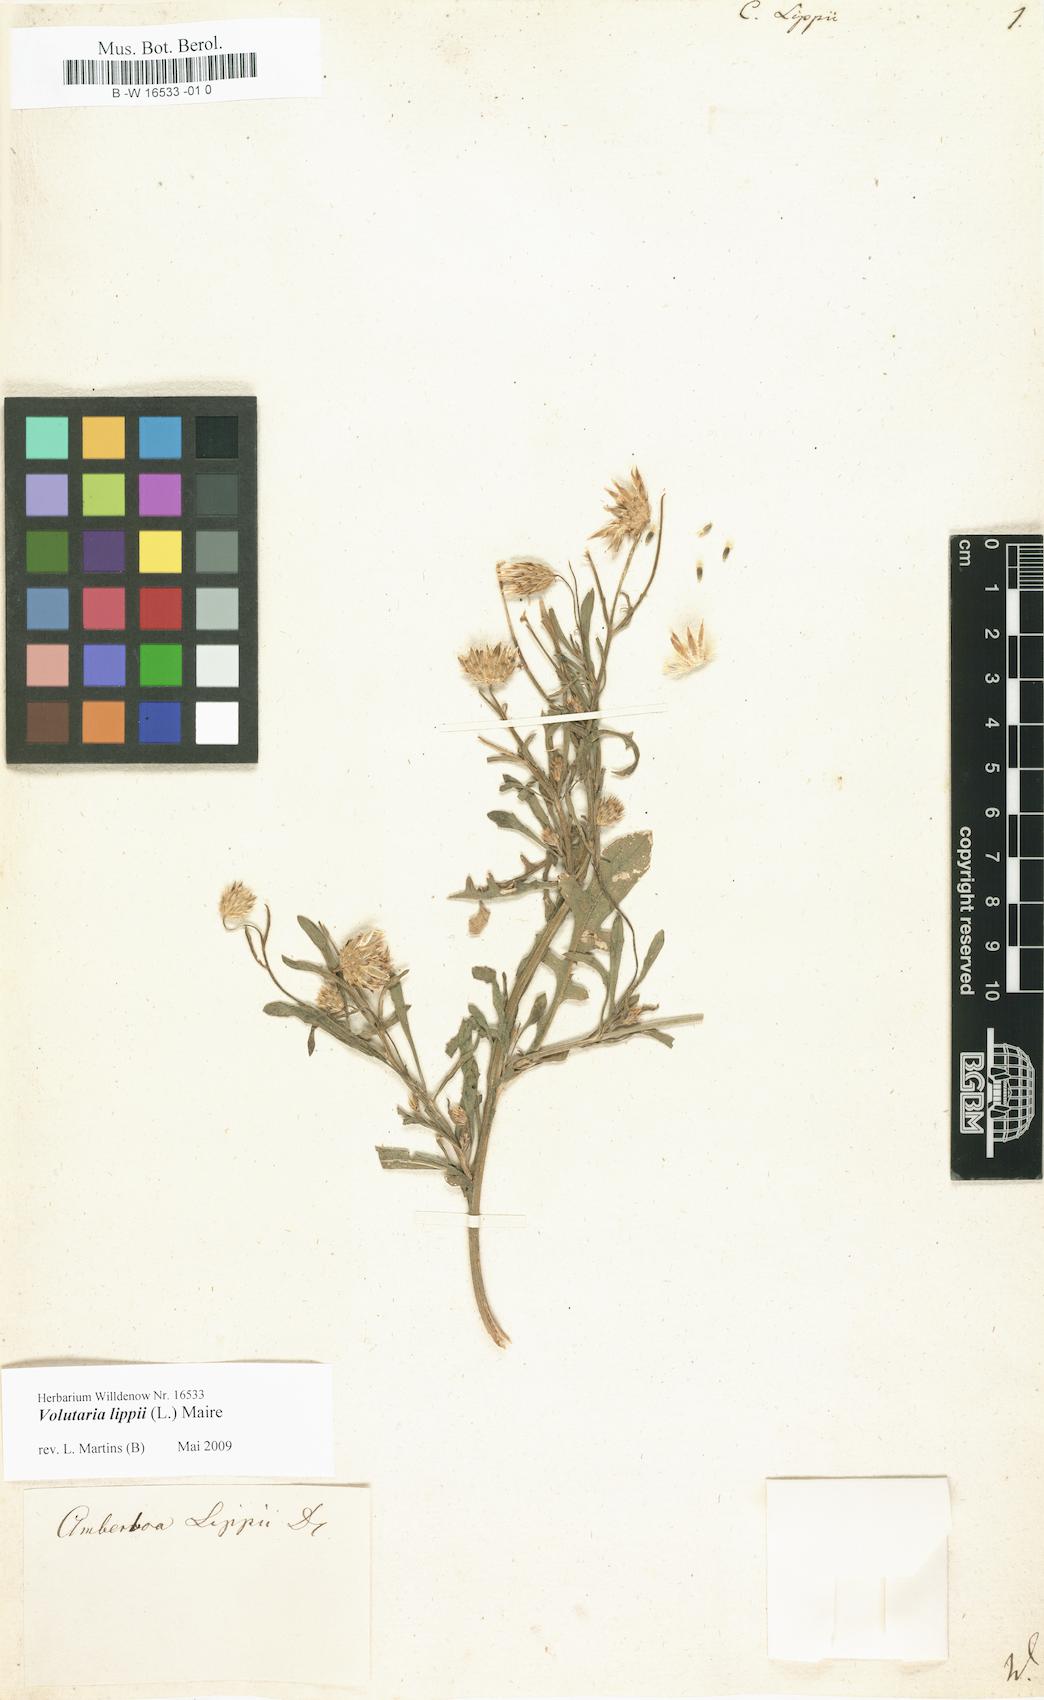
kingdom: Plantae
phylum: Tracheophyta
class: Magnoliopsida
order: Asterales
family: Asteraceae
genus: Volutaria
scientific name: Volutaria lippii
